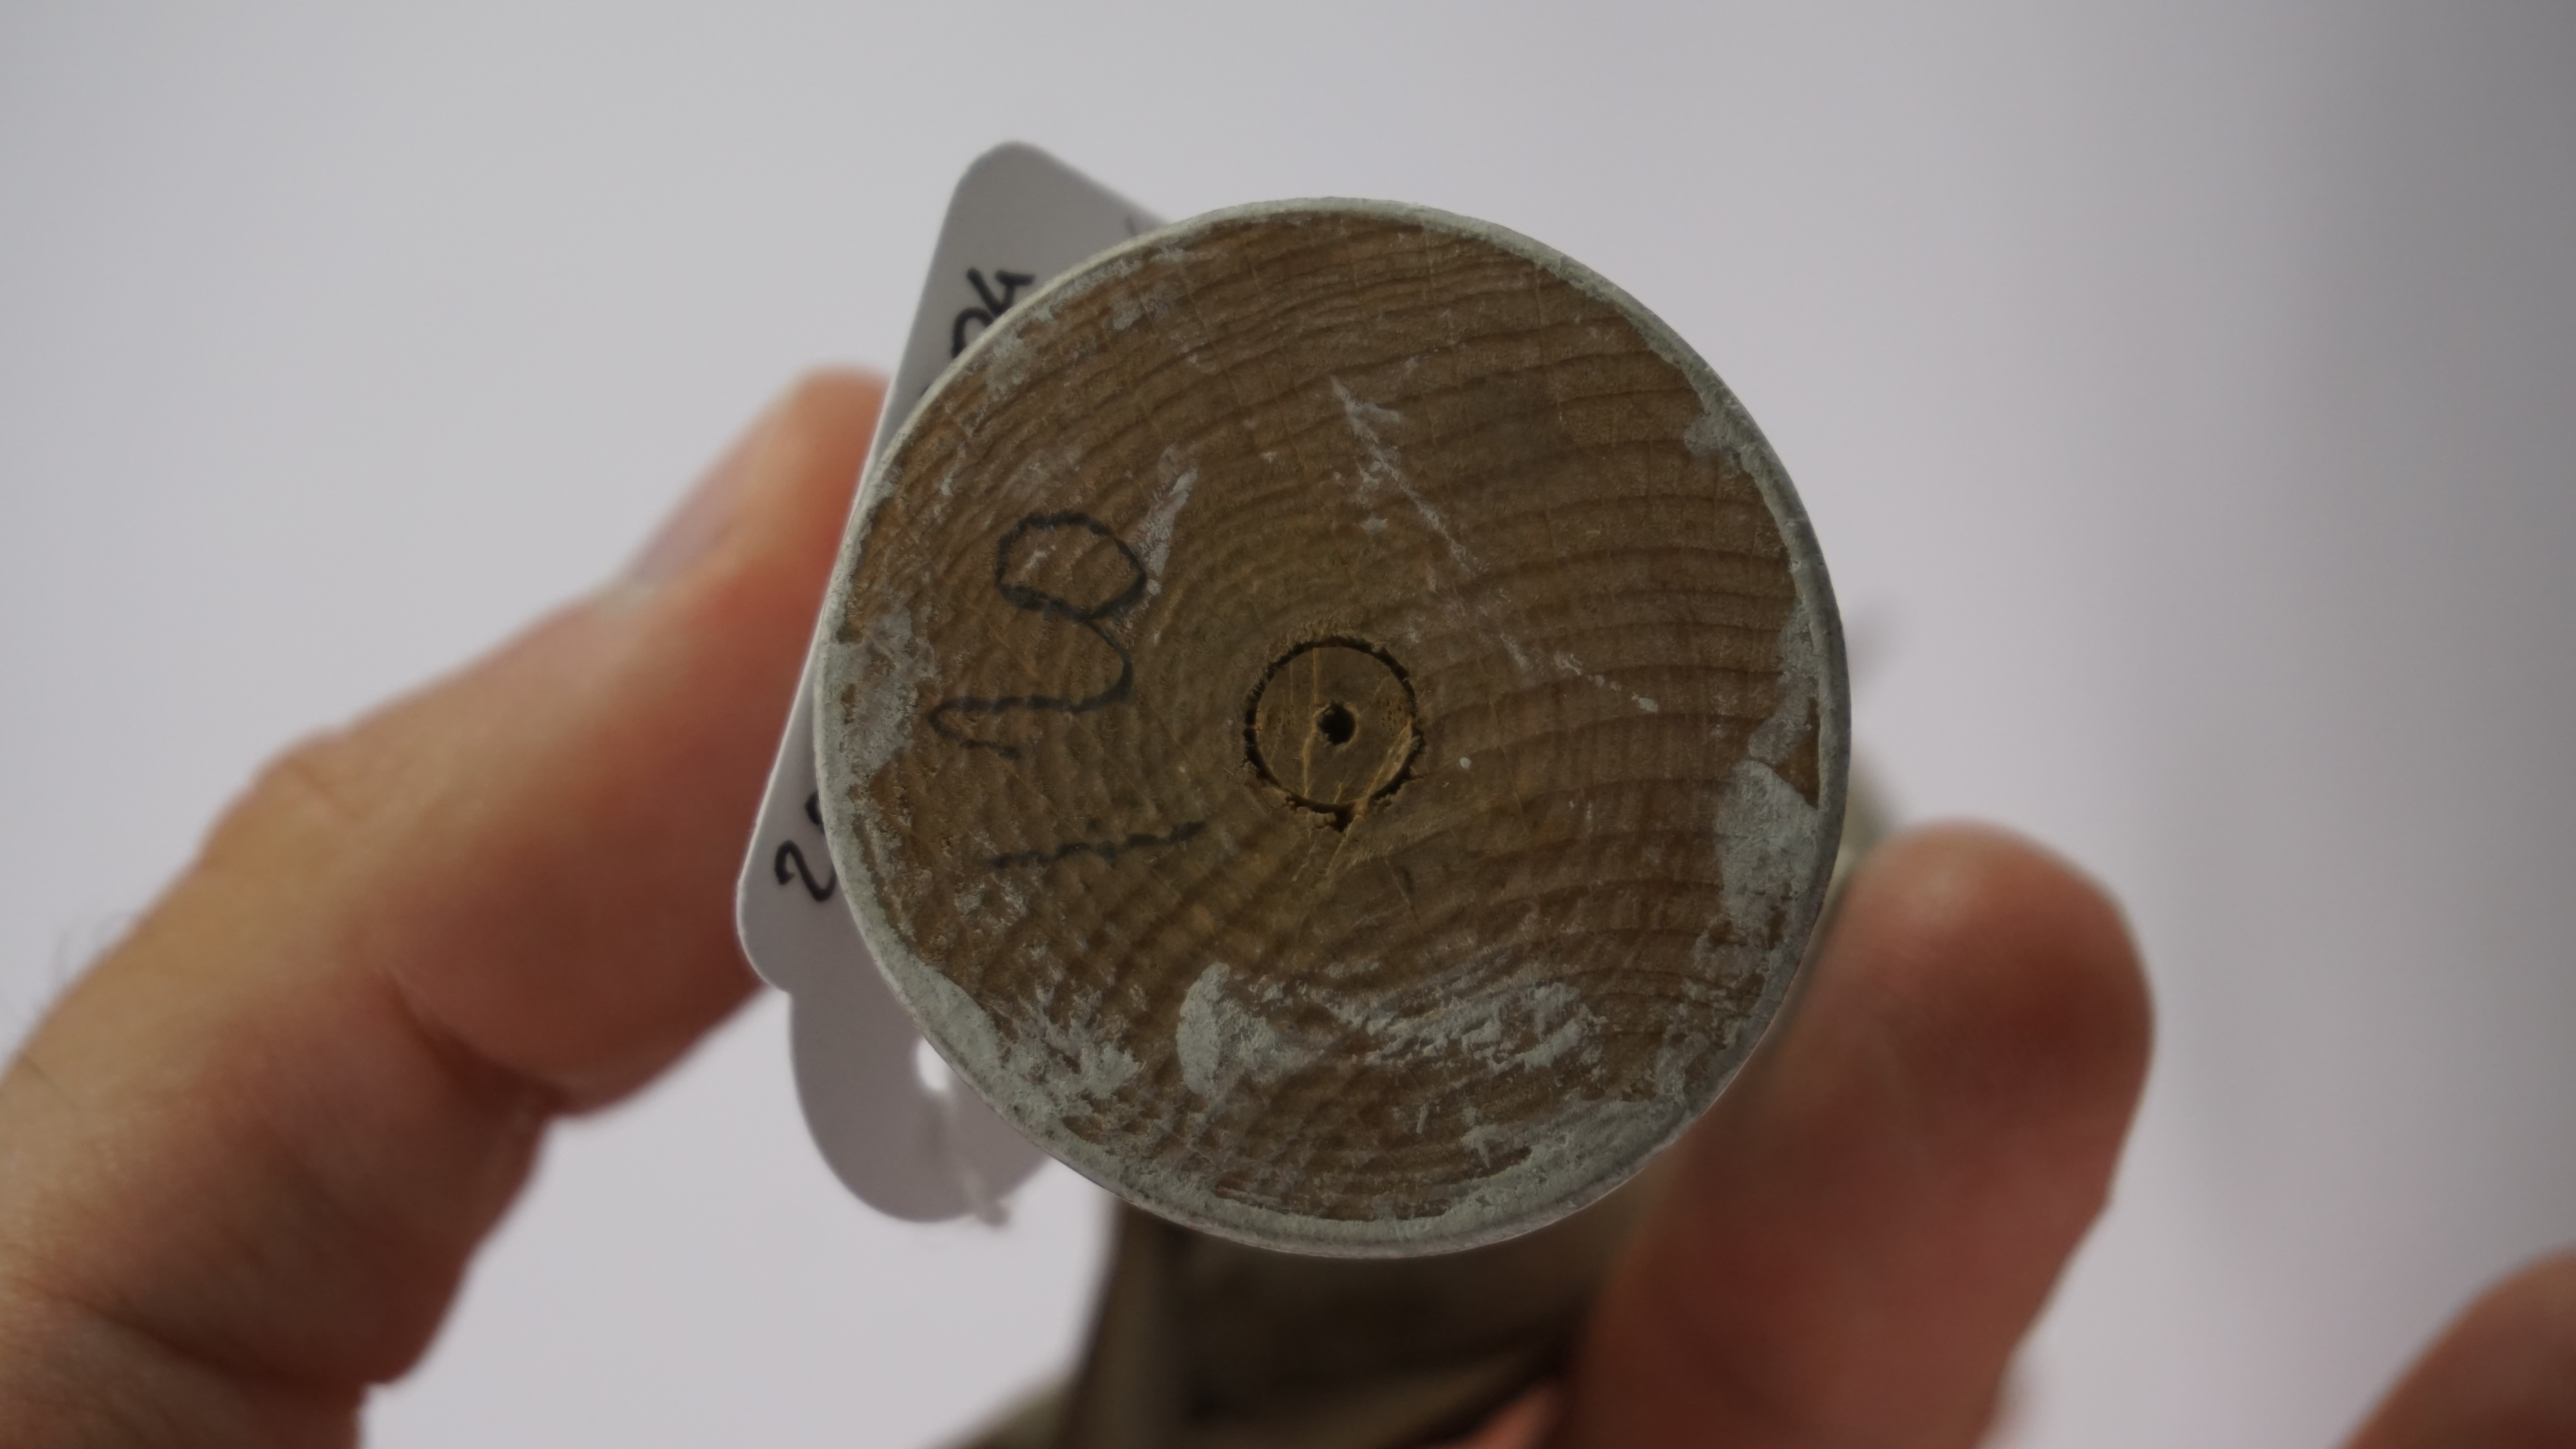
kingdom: Animalia
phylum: Chordata
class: Aves
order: Passeriformes
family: Meliphagidae
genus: Epthianura
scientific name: Epthianura albifrons
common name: White-fronted chat
